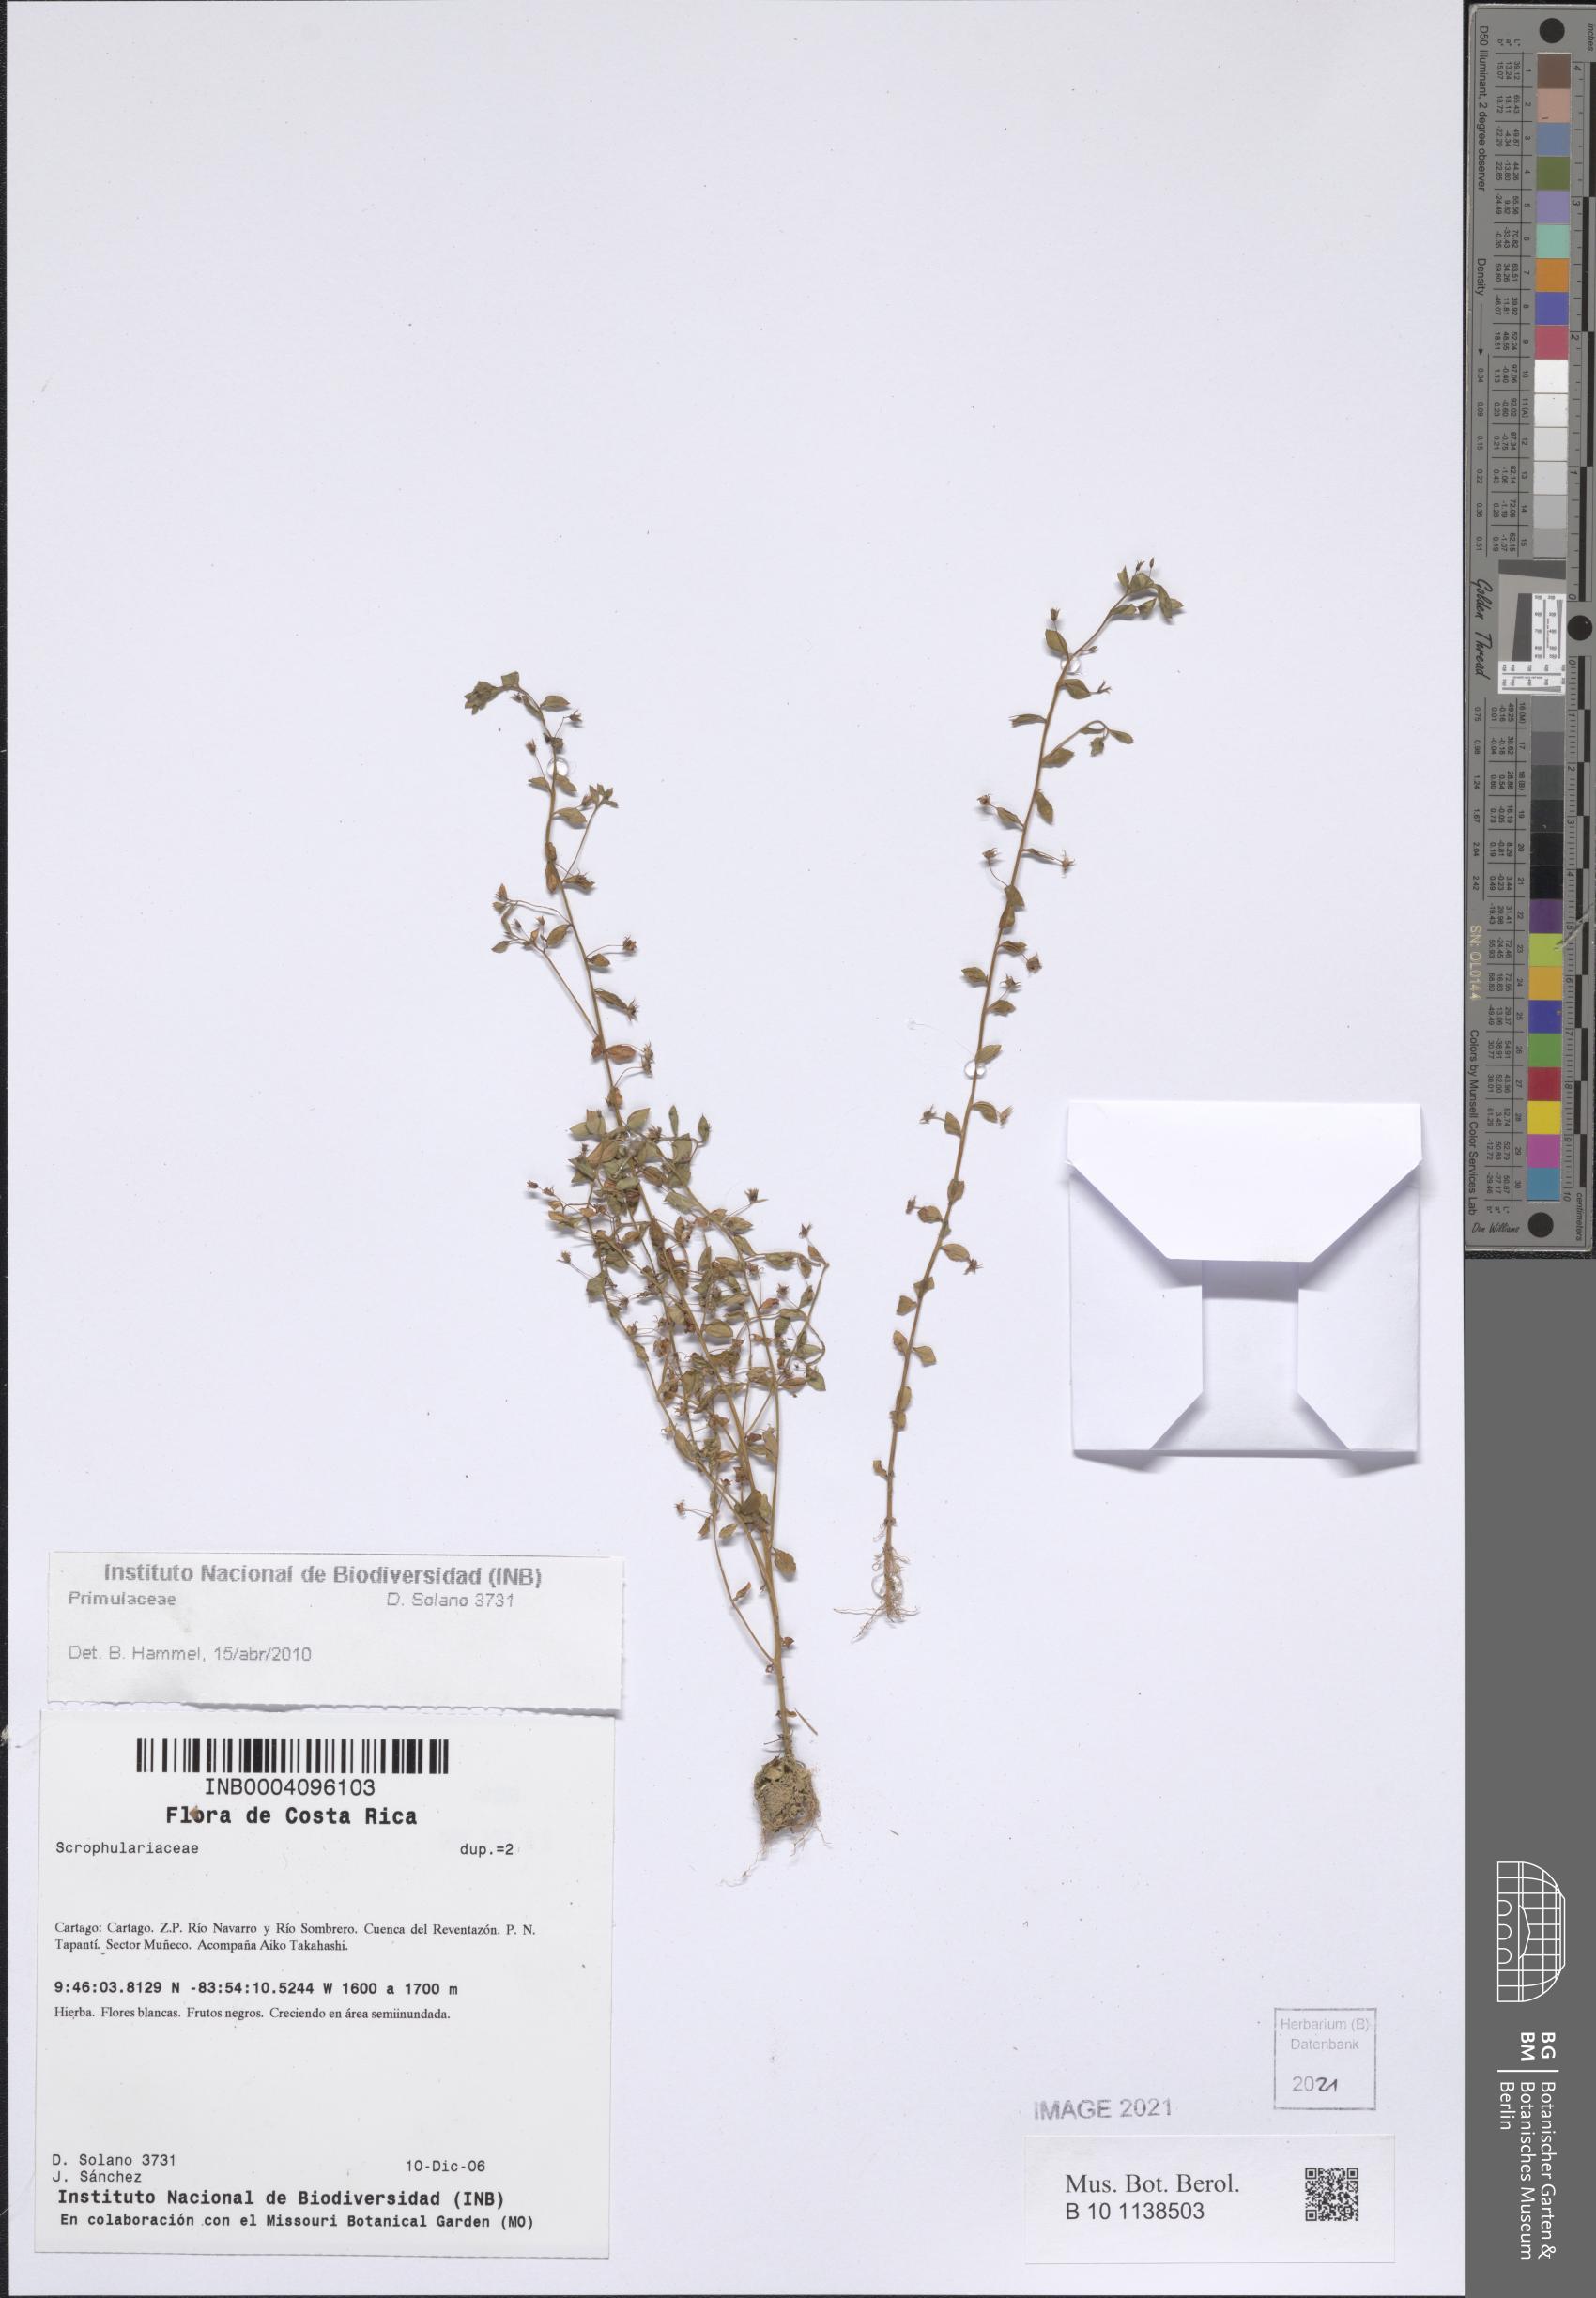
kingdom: Plantae
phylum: Tracheophyta
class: Magnoliopsida
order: Ericales
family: Primulaceae
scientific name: Primulaceae
